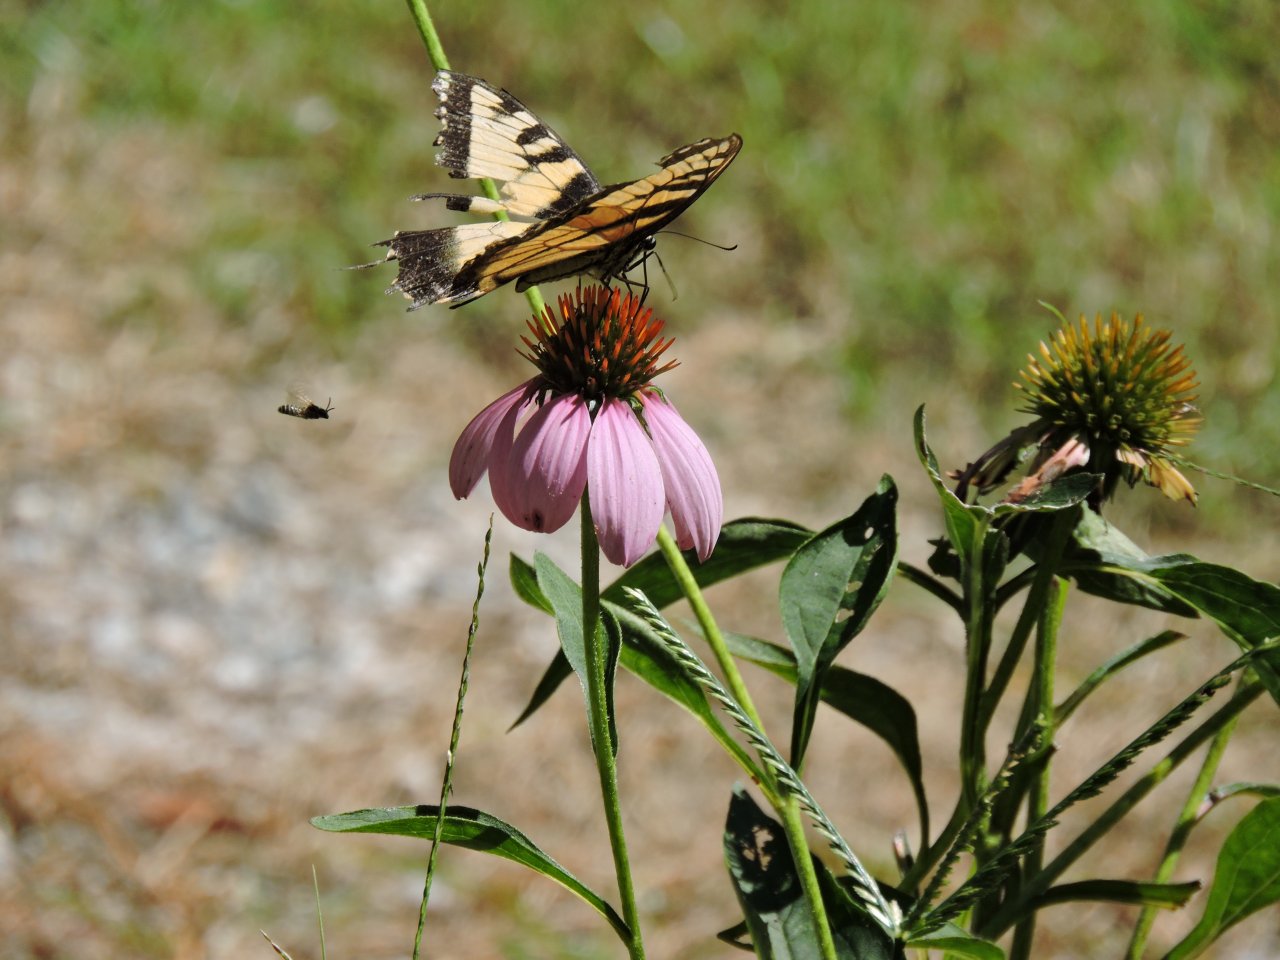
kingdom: Animalia
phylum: Arthropoda
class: Insecta
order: Lepidoptera
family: Papilionidae
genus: Pterourus
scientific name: Pterourus glaucus
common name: Eastern Tiger Swallowtail
